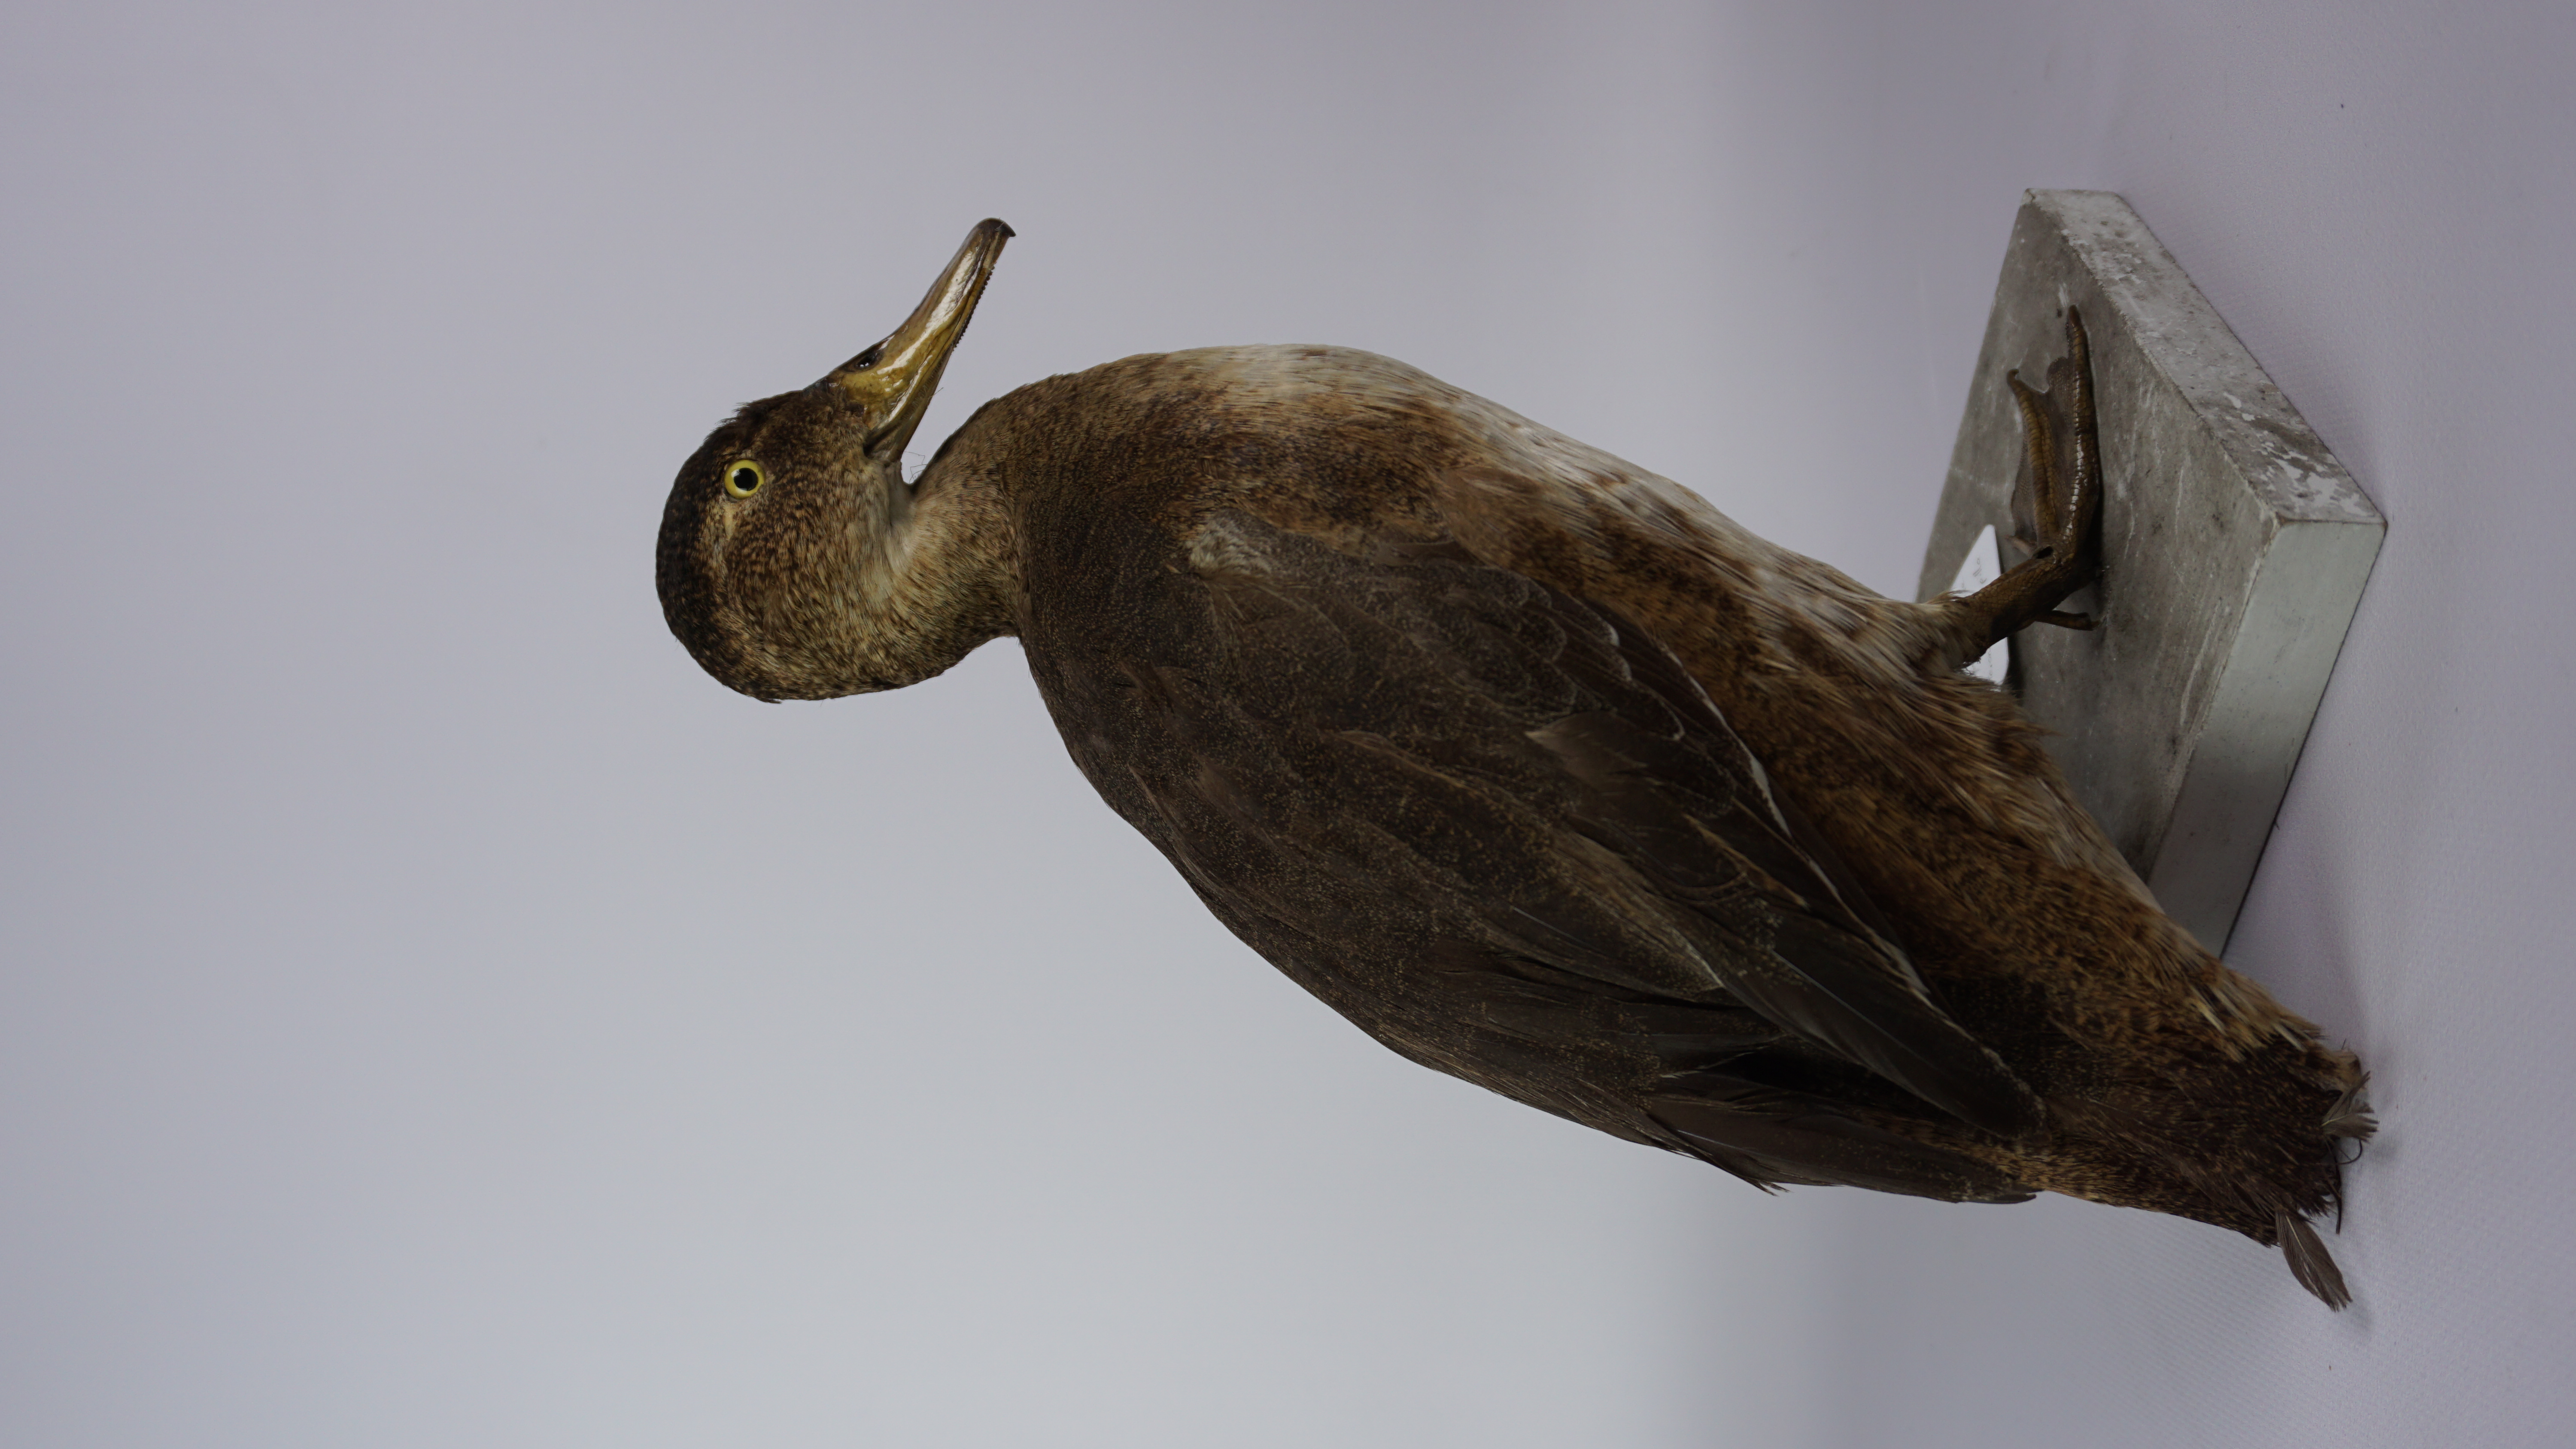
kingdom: Animalia
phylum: Chordata
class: Aves
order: Anseriformes
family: Anatidae
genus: Heteronetta
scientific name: Heteronetta atricapilla
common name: Black-headed duck
